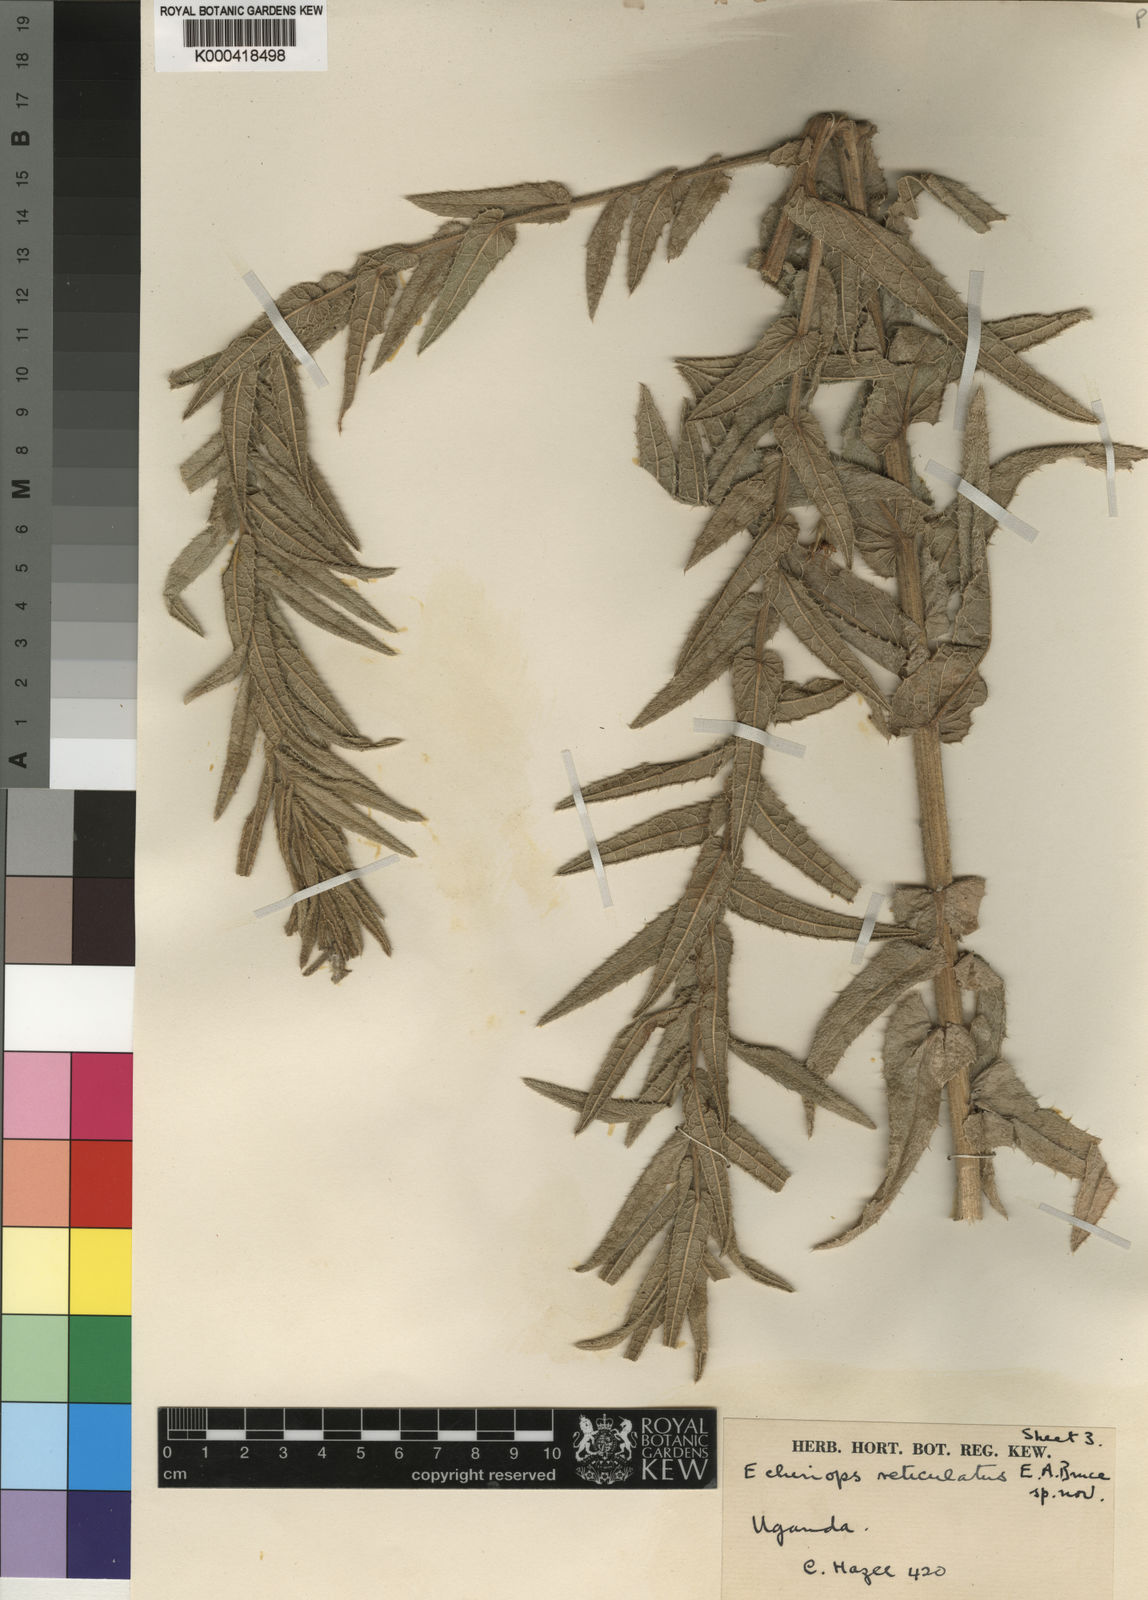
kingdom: Plantae
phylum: Tracheophyta
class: Magnoliopsida
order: Asterales
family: Asteraceae
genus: Echinops
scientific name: Echinops reticulatus
